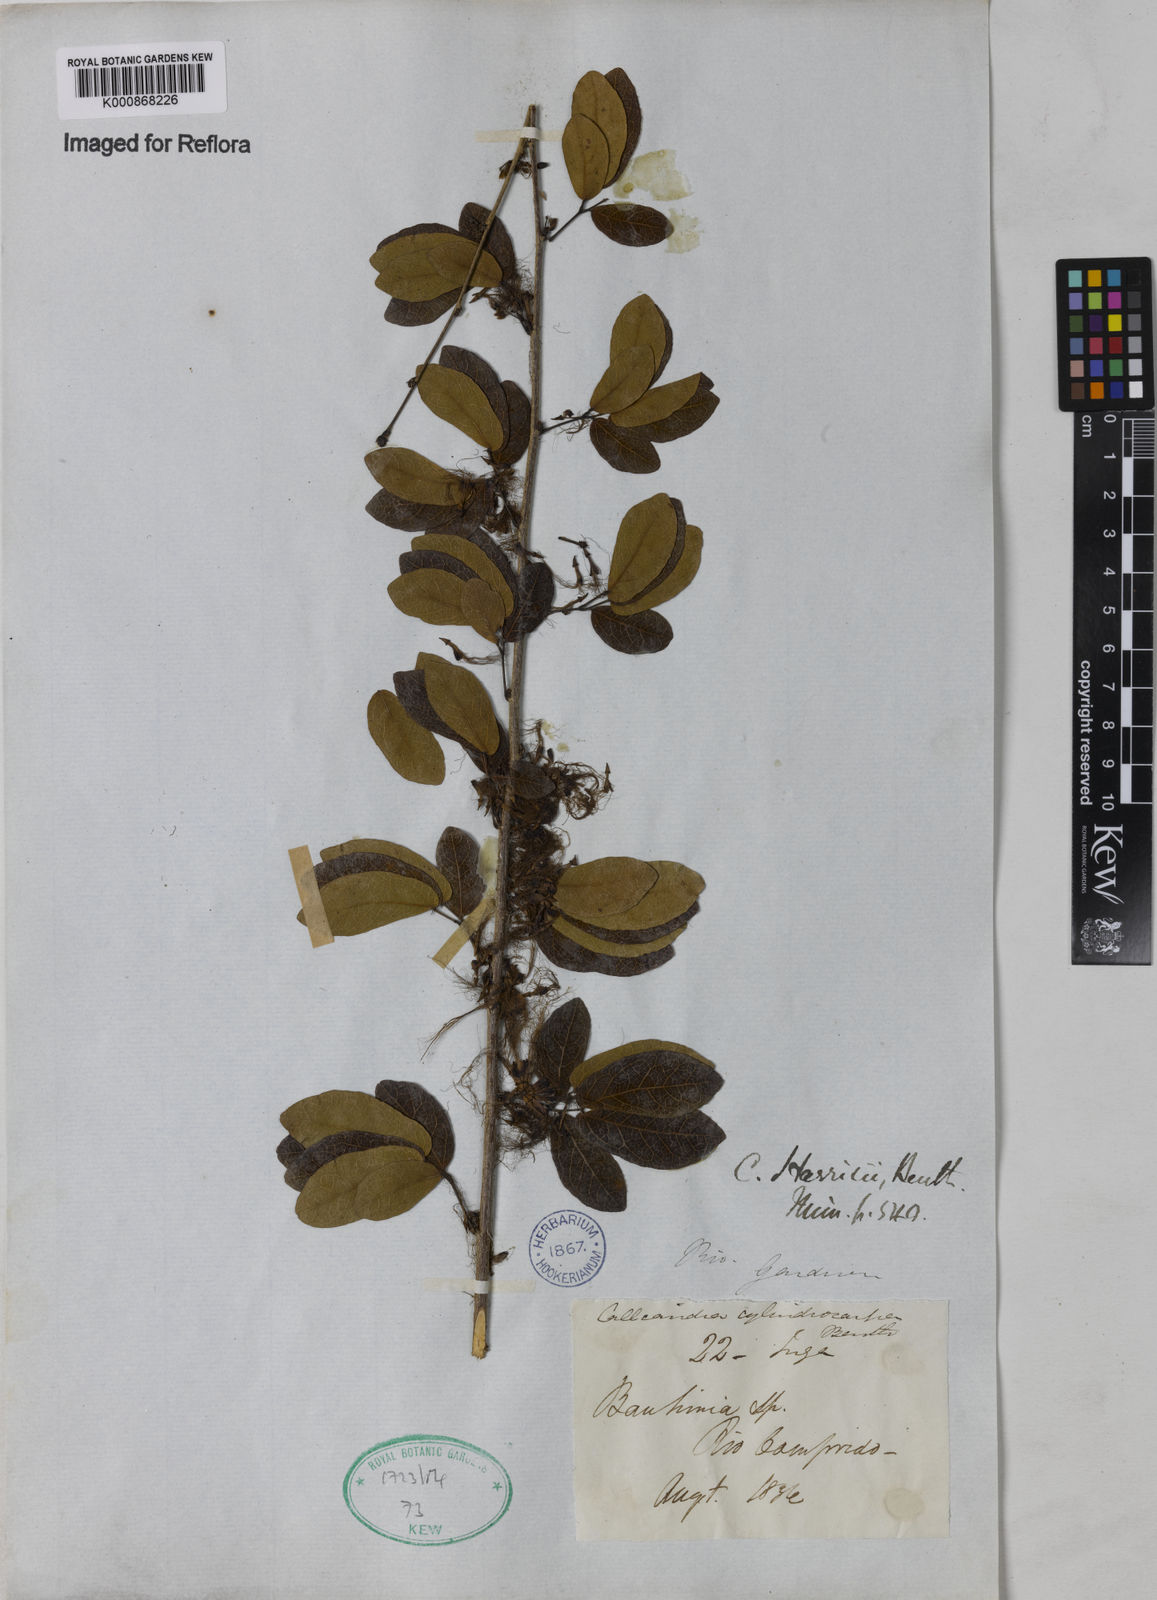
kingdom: Plantae
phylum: Tracheophyta
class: Magnoliopsida
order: Fabales
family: Fabaceae
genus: Calliandra
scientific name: Calliandra harrisii
